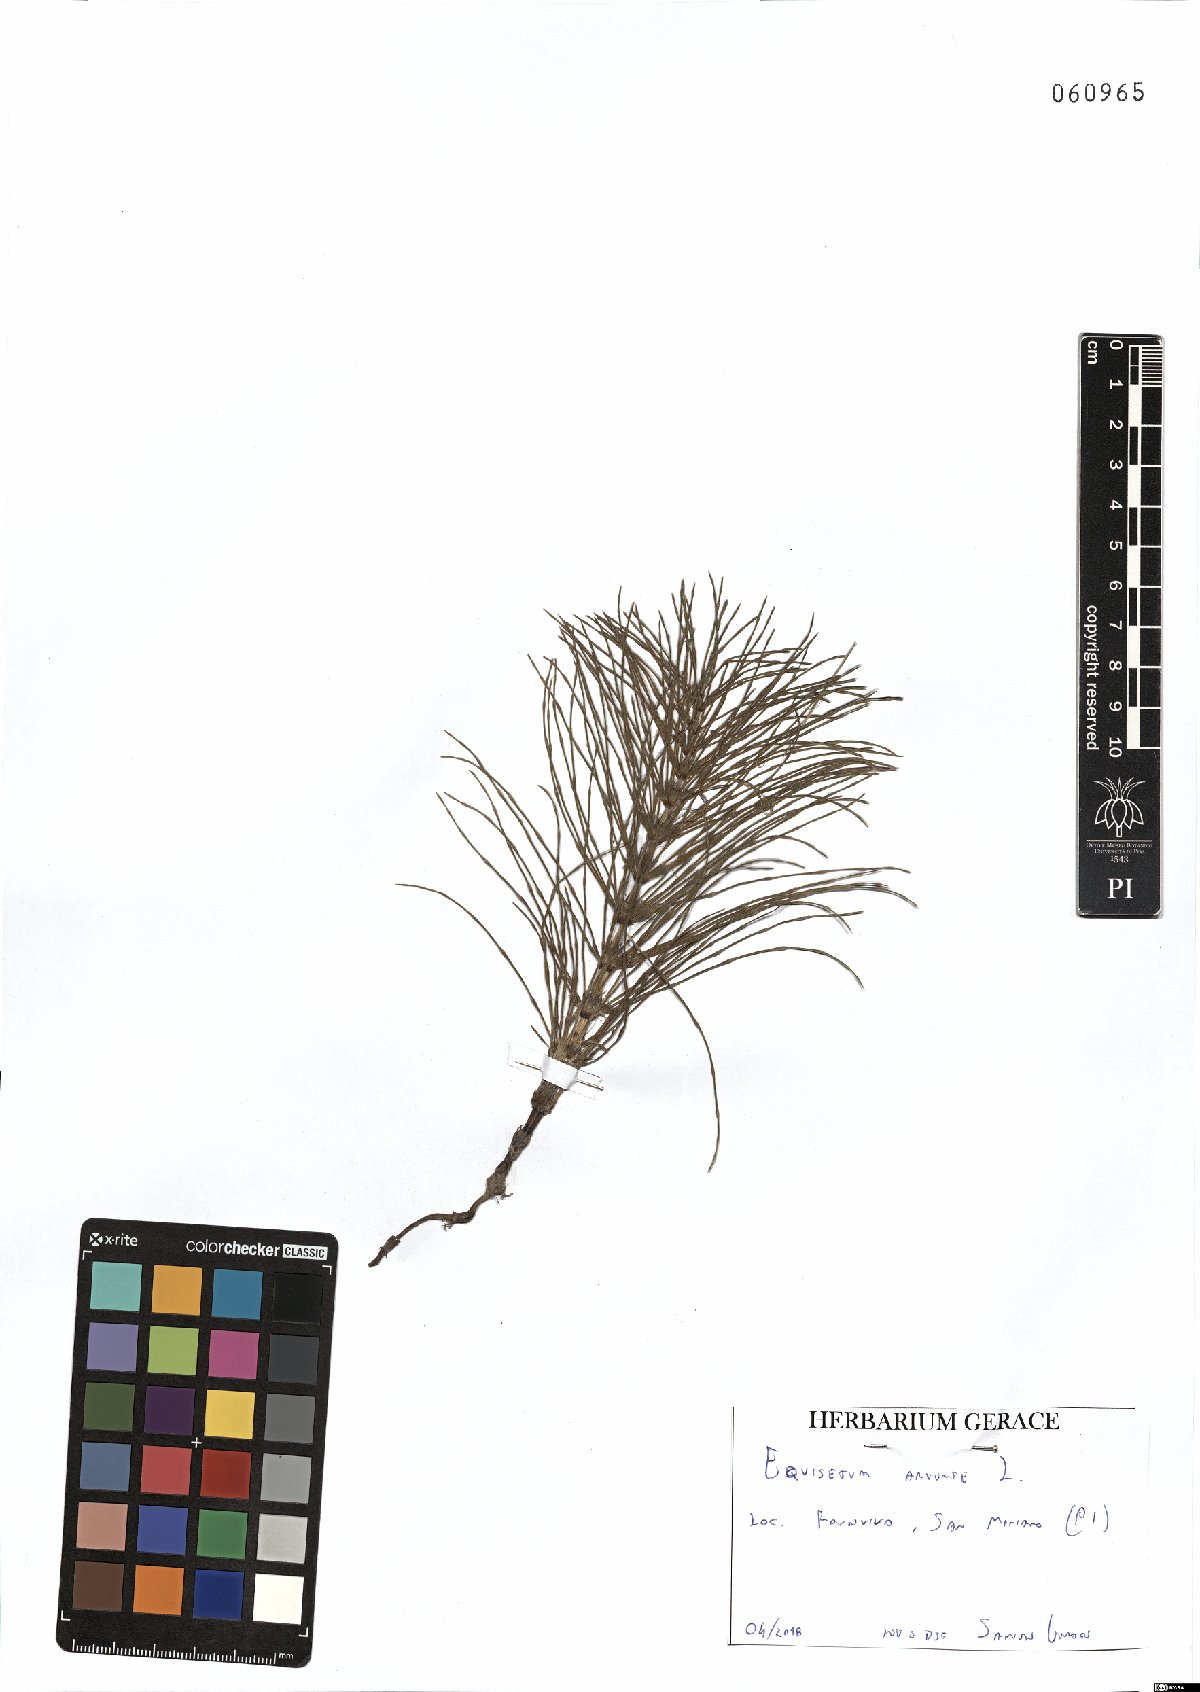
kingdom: Plantae
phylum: Tracheophyta
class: Polypodiopsida
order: Equisetales
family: Equisetaceae
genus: Equisetum
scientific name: Equisetum arvense
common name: Field horsetail
